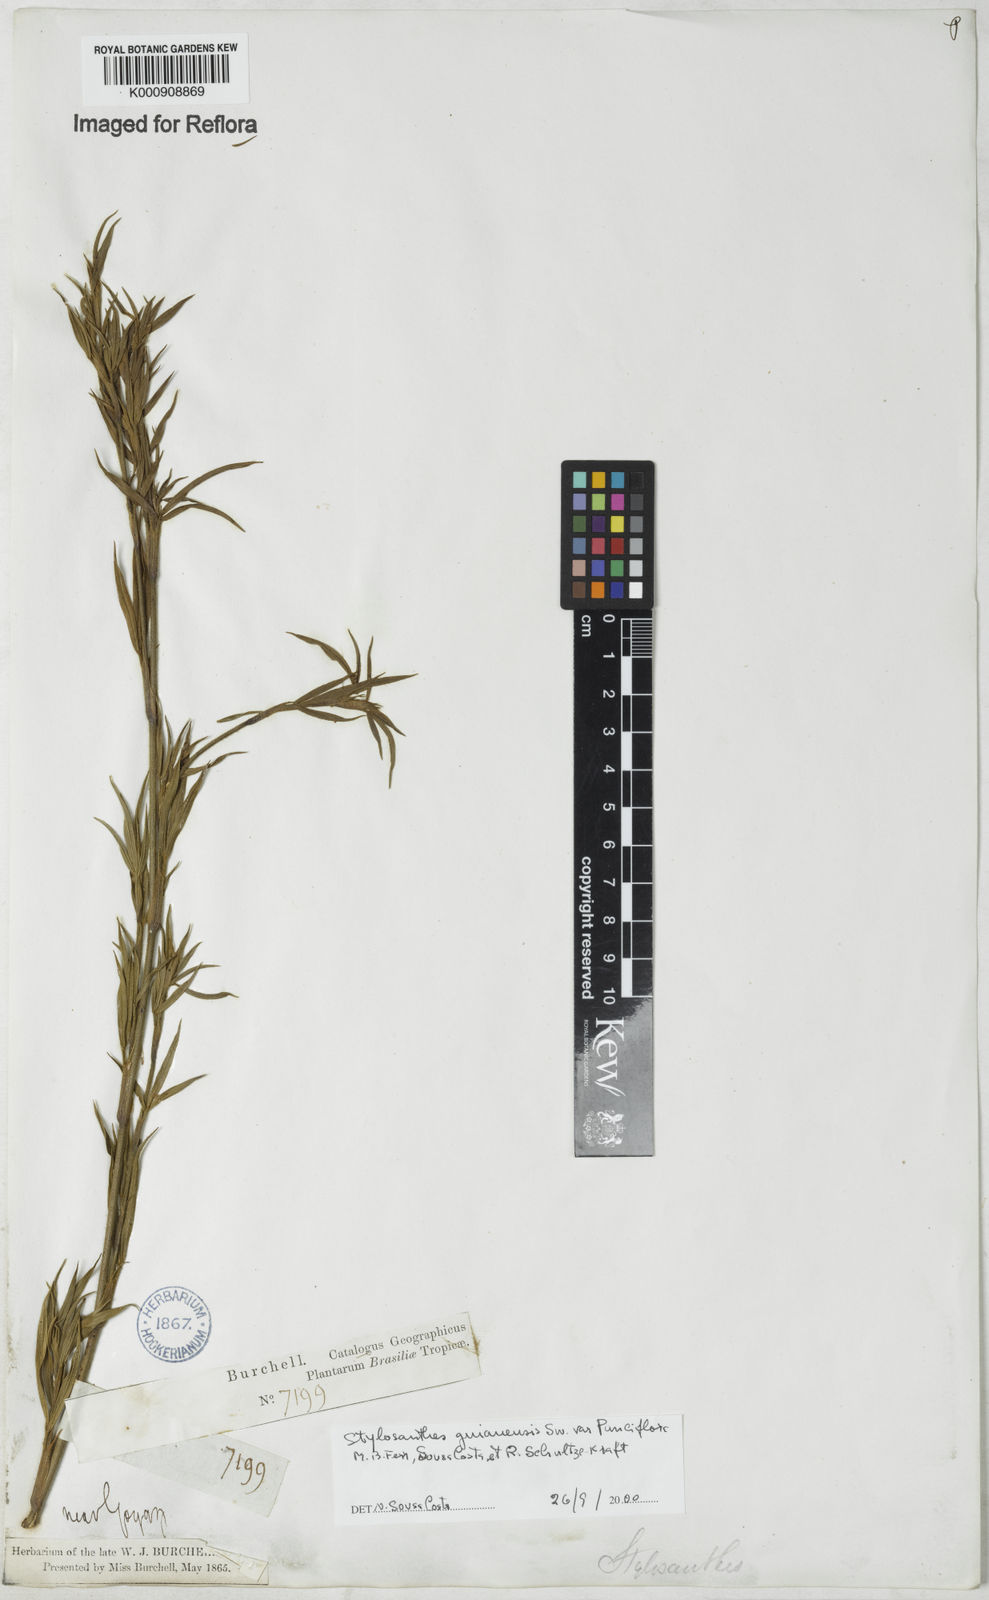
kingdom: Plantae
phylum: Tracheophyta
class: Magnoliopsida
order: Fabales
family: Fabaceae
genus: Stylosanthes
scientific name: Stylosanthes
